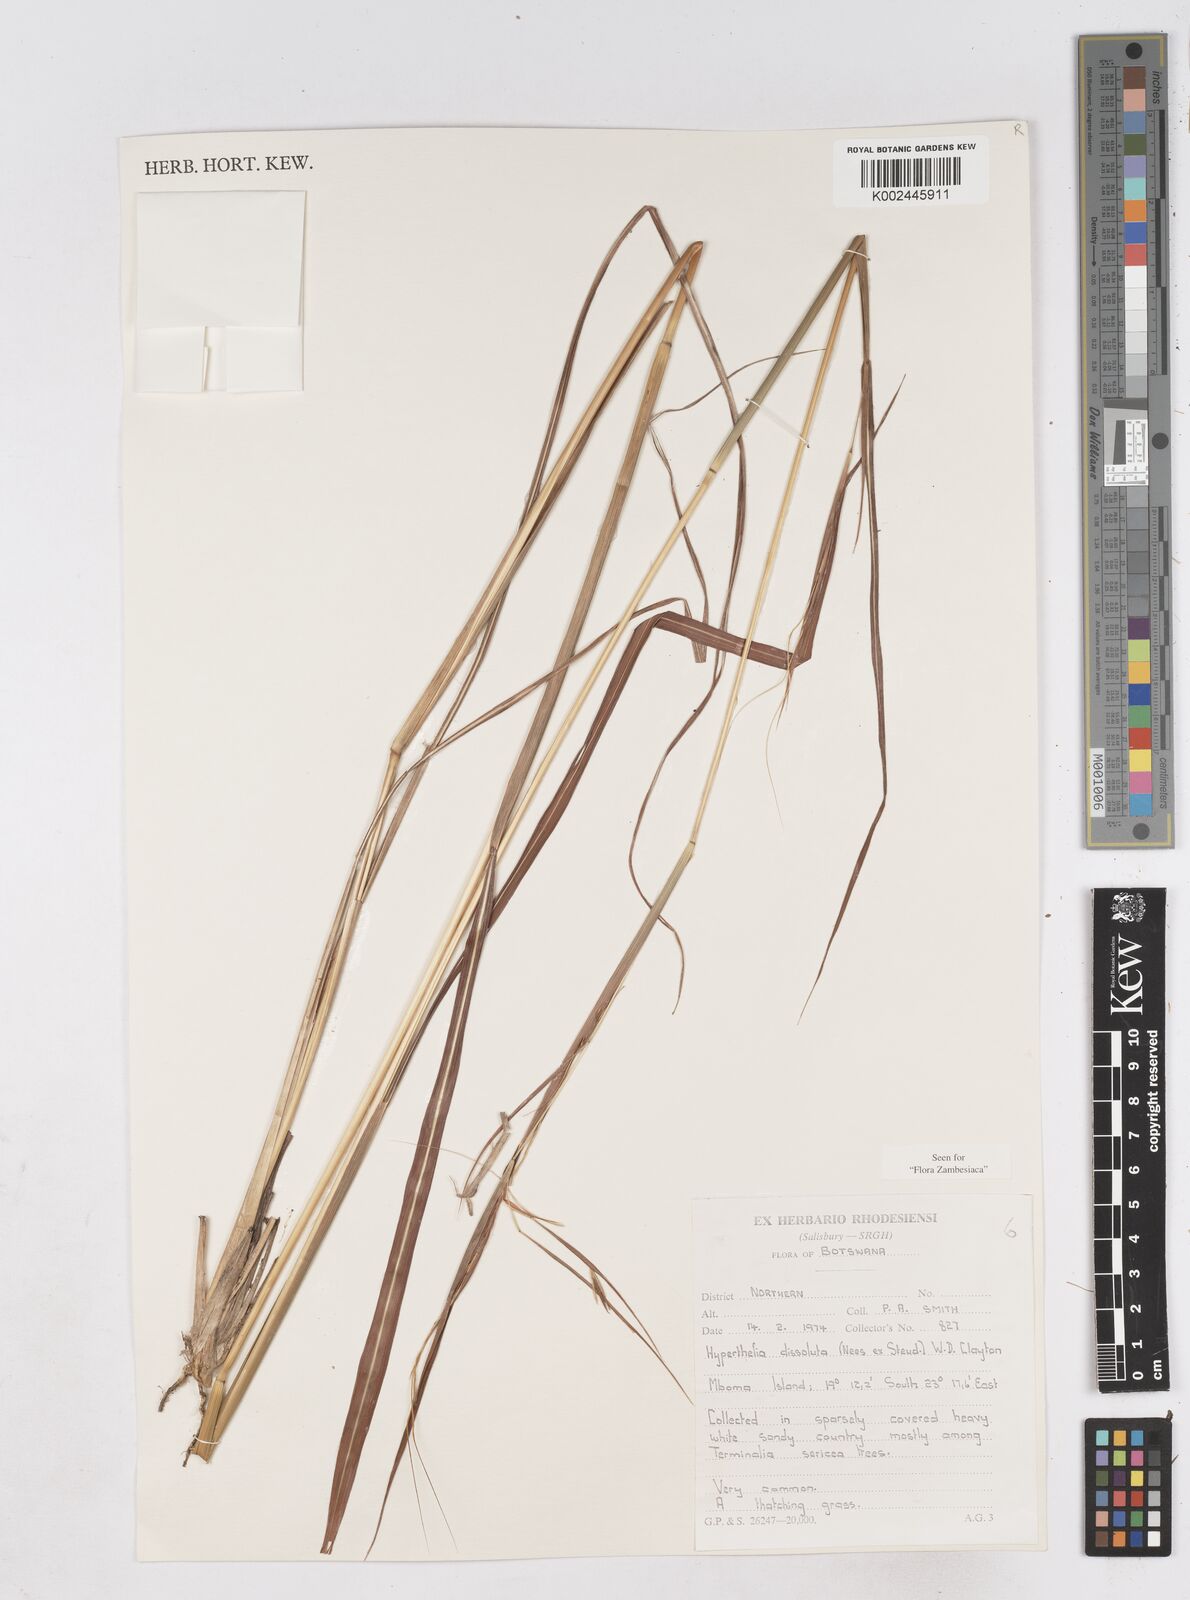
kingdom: Plantae
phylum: Tracheophyta
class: Liliopsida
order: Poales
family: Poaceae
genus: Hyperthelia
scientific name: Hyperthelia dissoluta
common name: Yellow thatching grass
